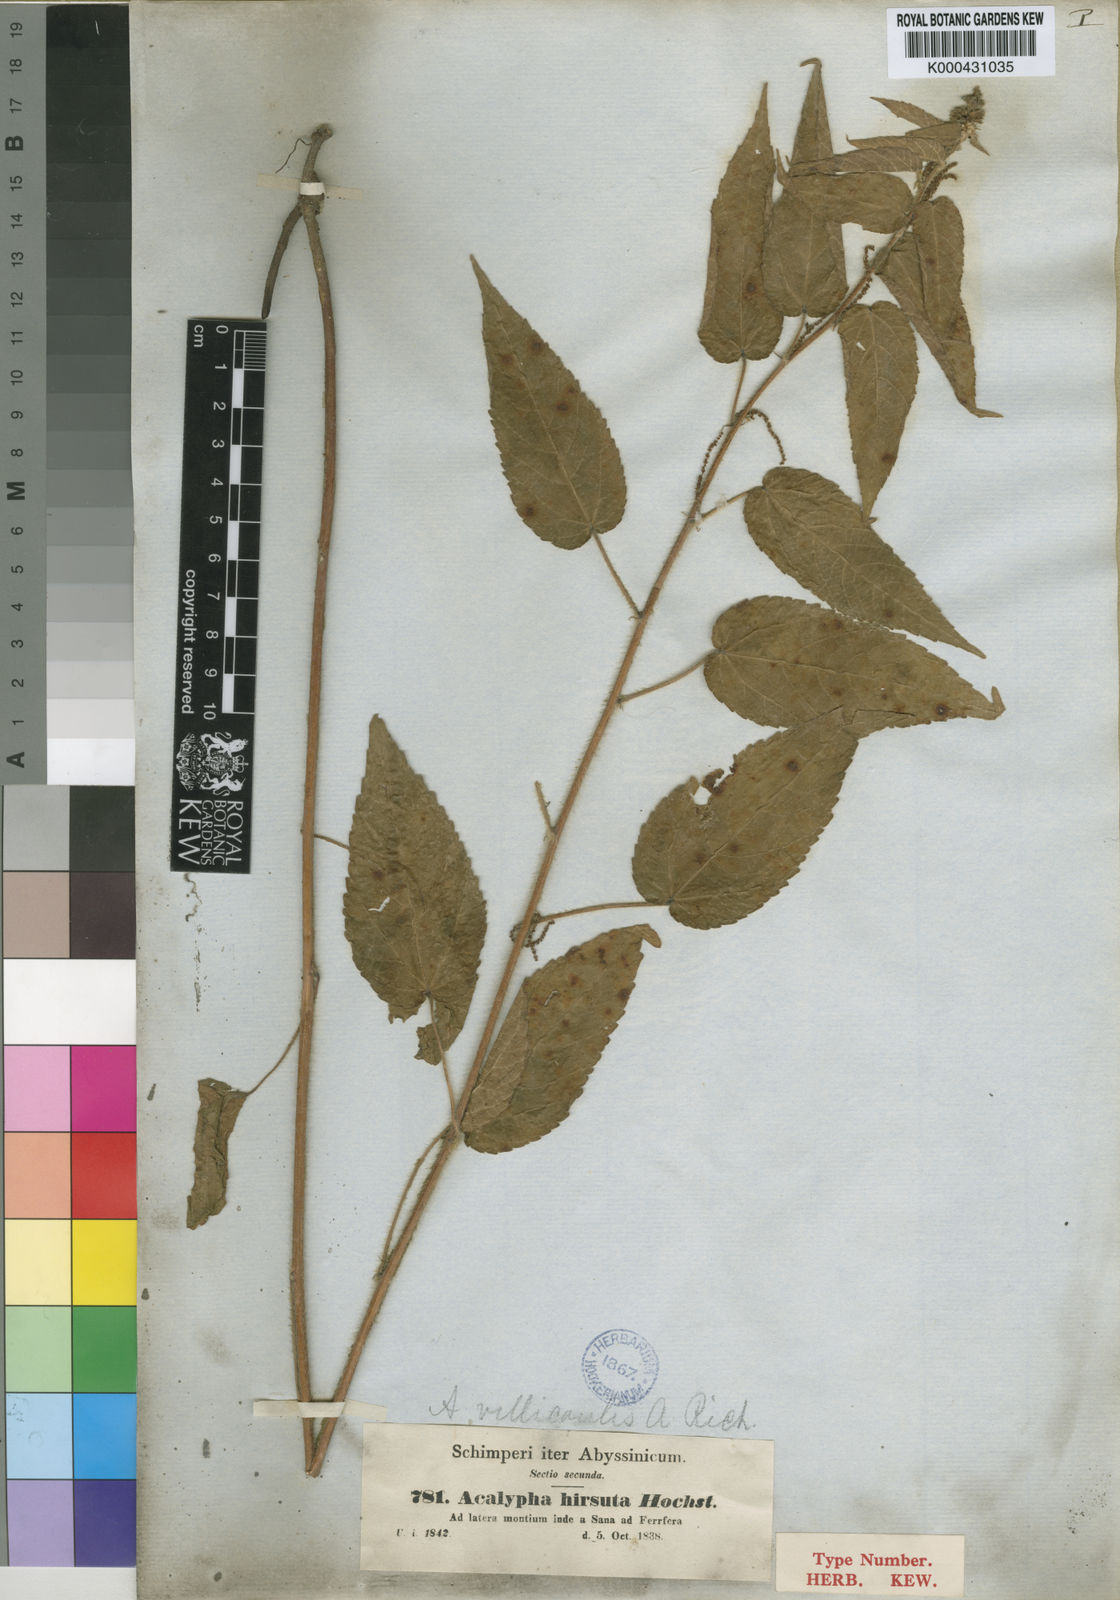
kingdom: Plantae
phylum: Tracheophyta
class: Magnoliopsida
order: Malpighiales
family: Euphorbiaceae
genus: Acalypha
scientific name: Acalypha petiolaris
